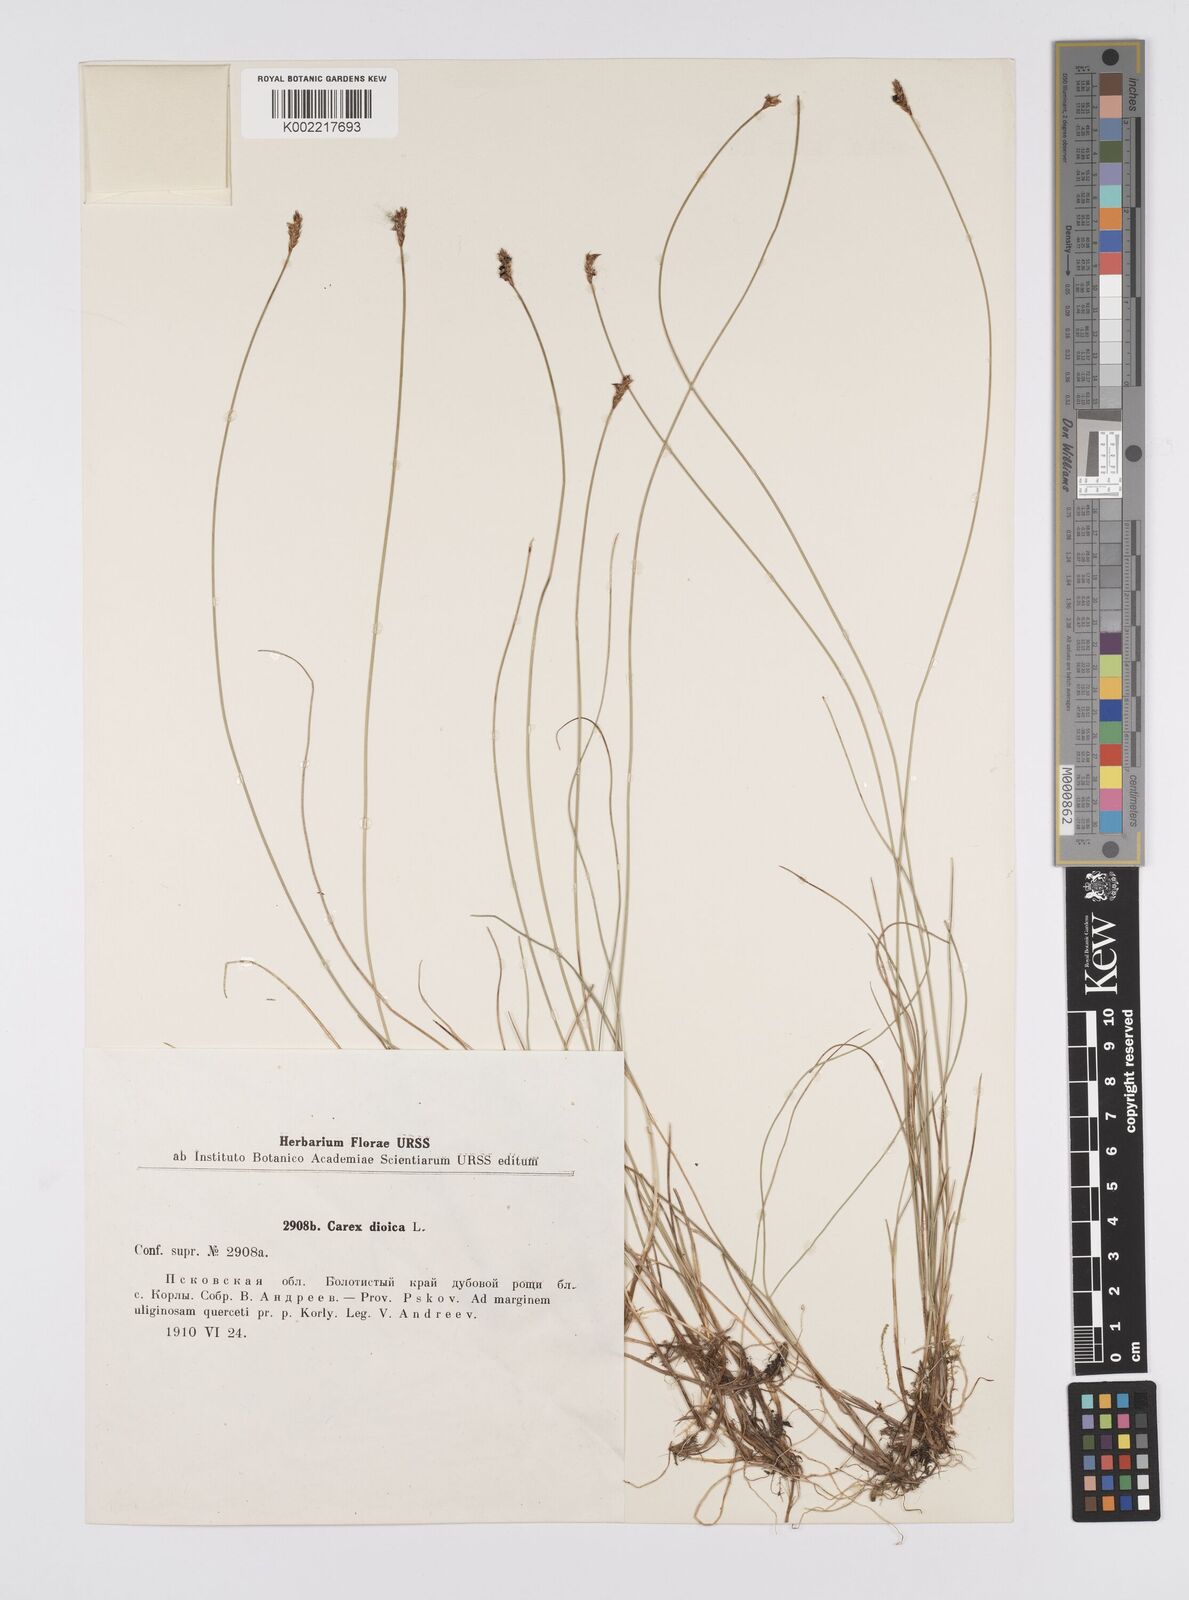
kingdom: Plantae
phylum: Tracheophyta
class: Liliopsida
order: Poales
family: Cyperaceae
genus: Carex
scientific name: Carex dioica
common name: Dioecious sedge
